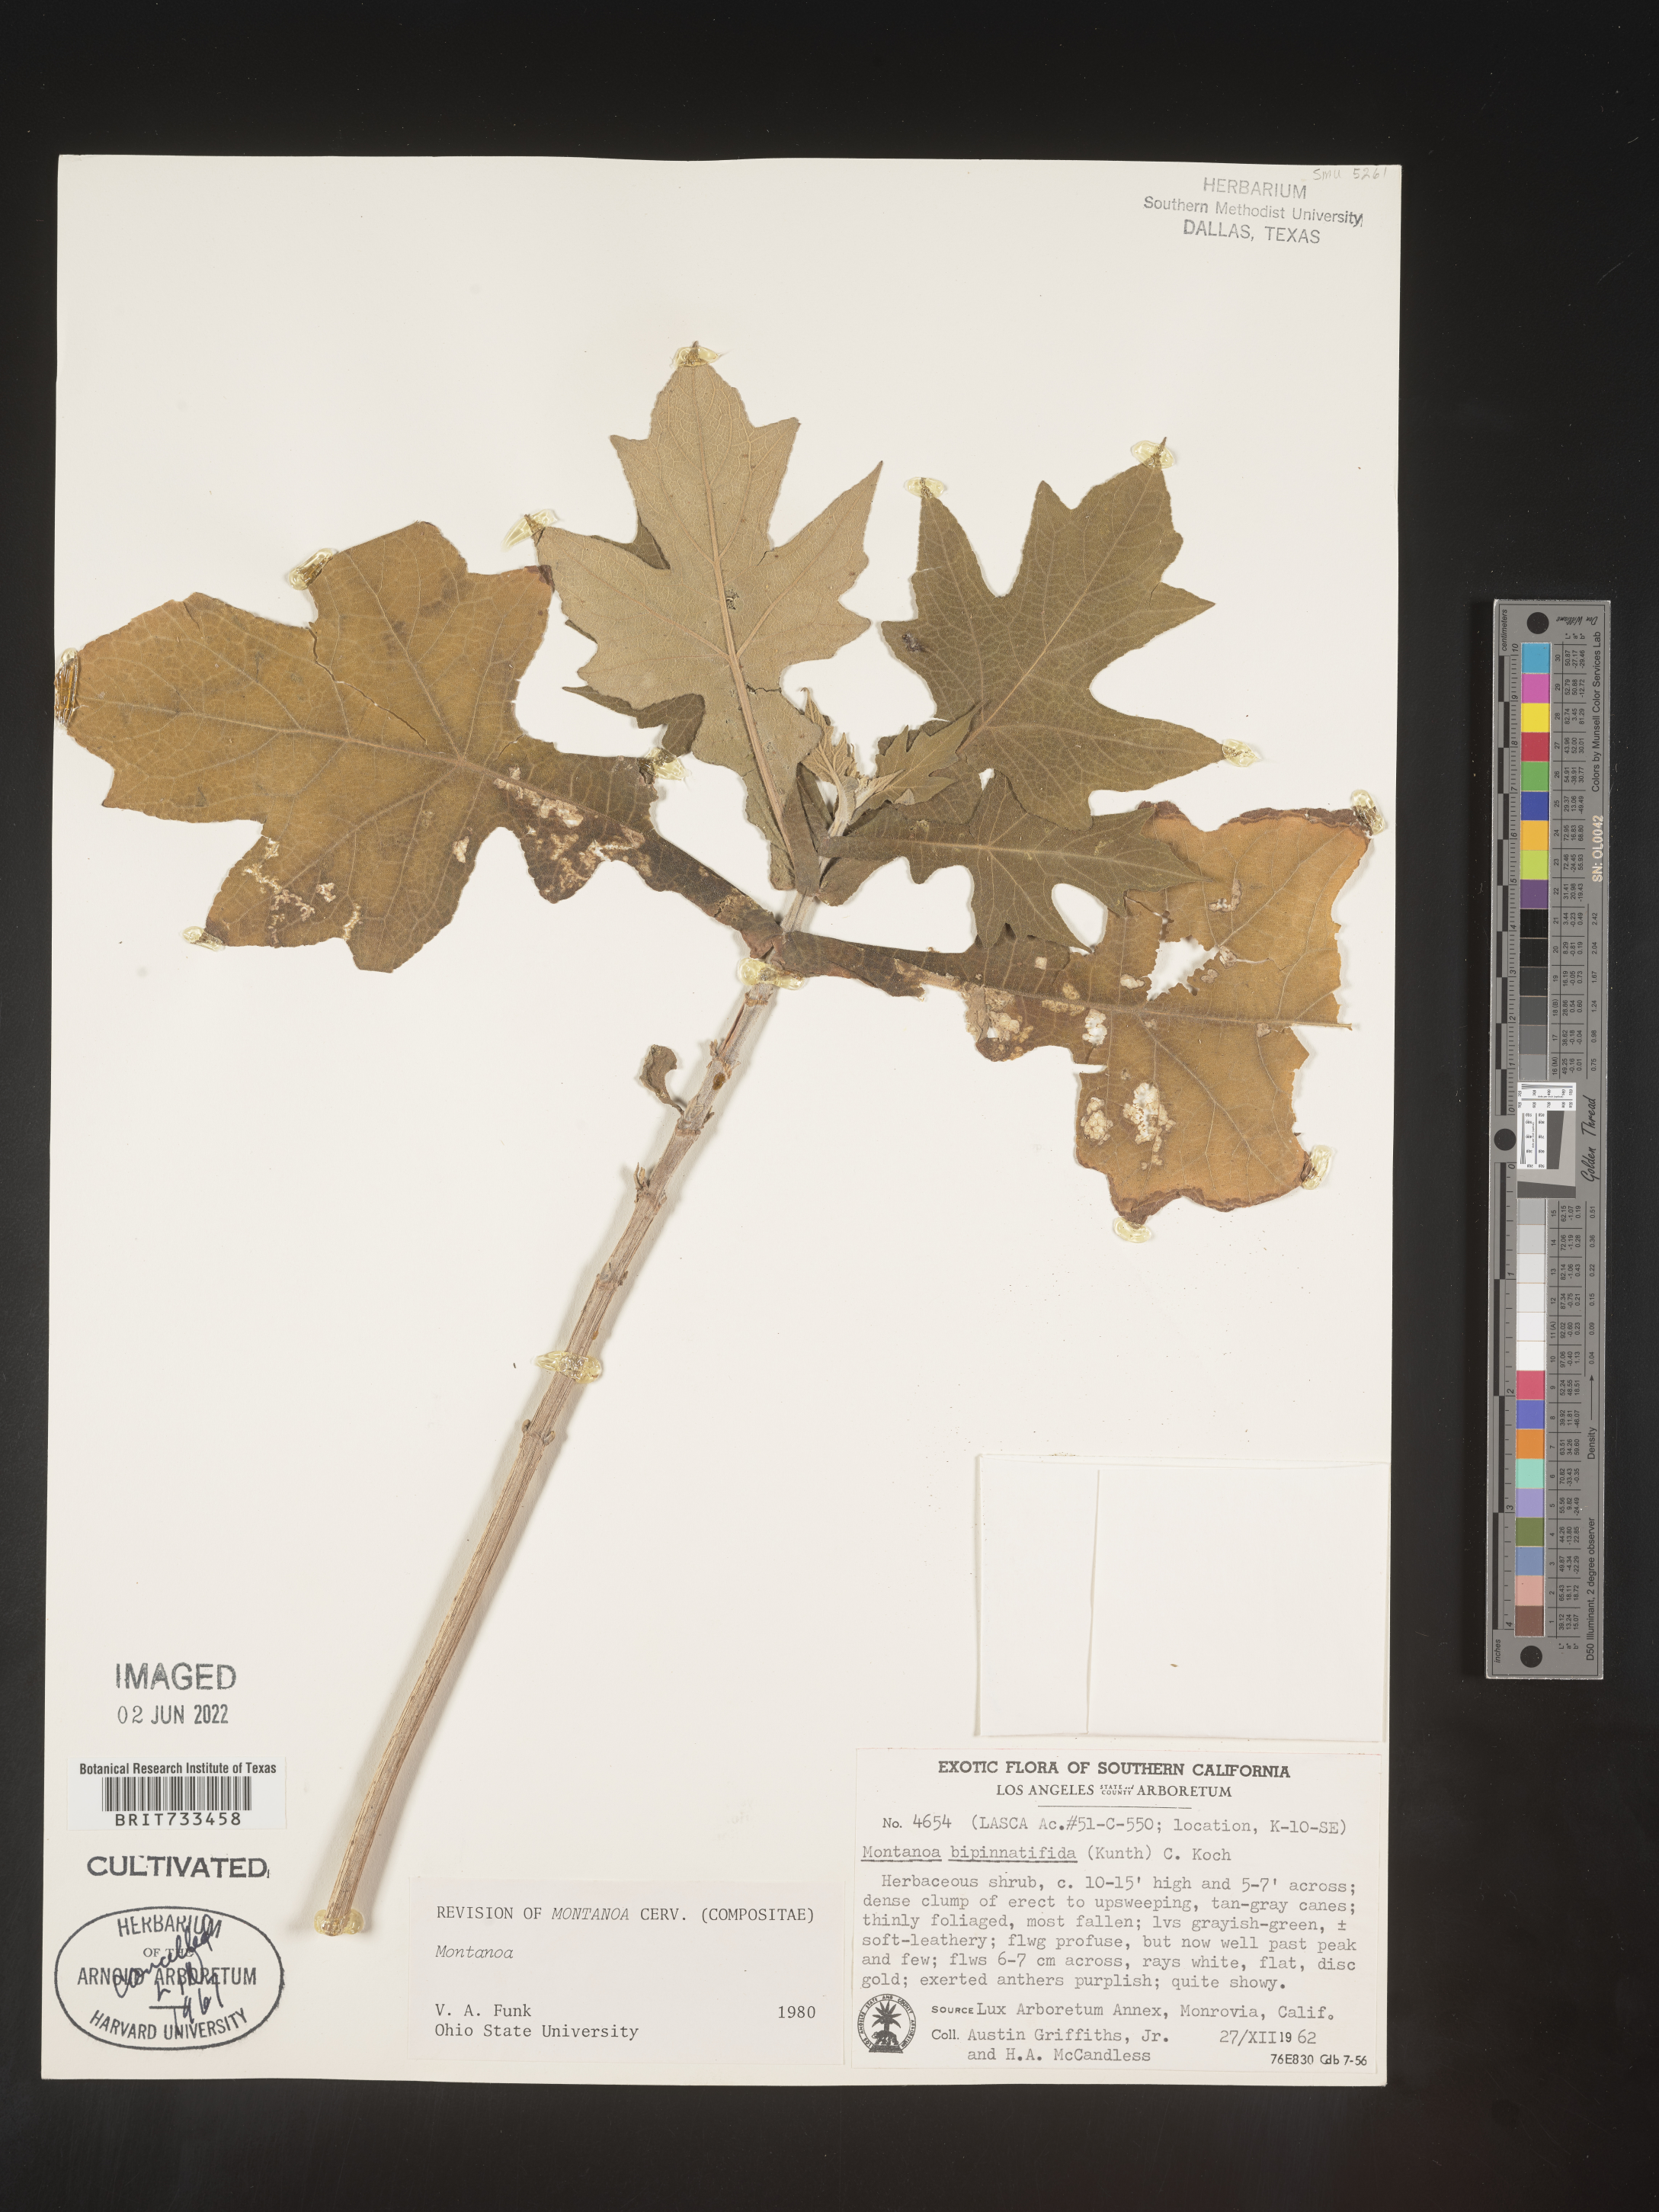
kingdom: Plantae
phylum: Tracheophyta
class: Magnoliopsida
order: Asterales
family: Asteraceae
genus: Montanoa
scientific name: Montanoa
